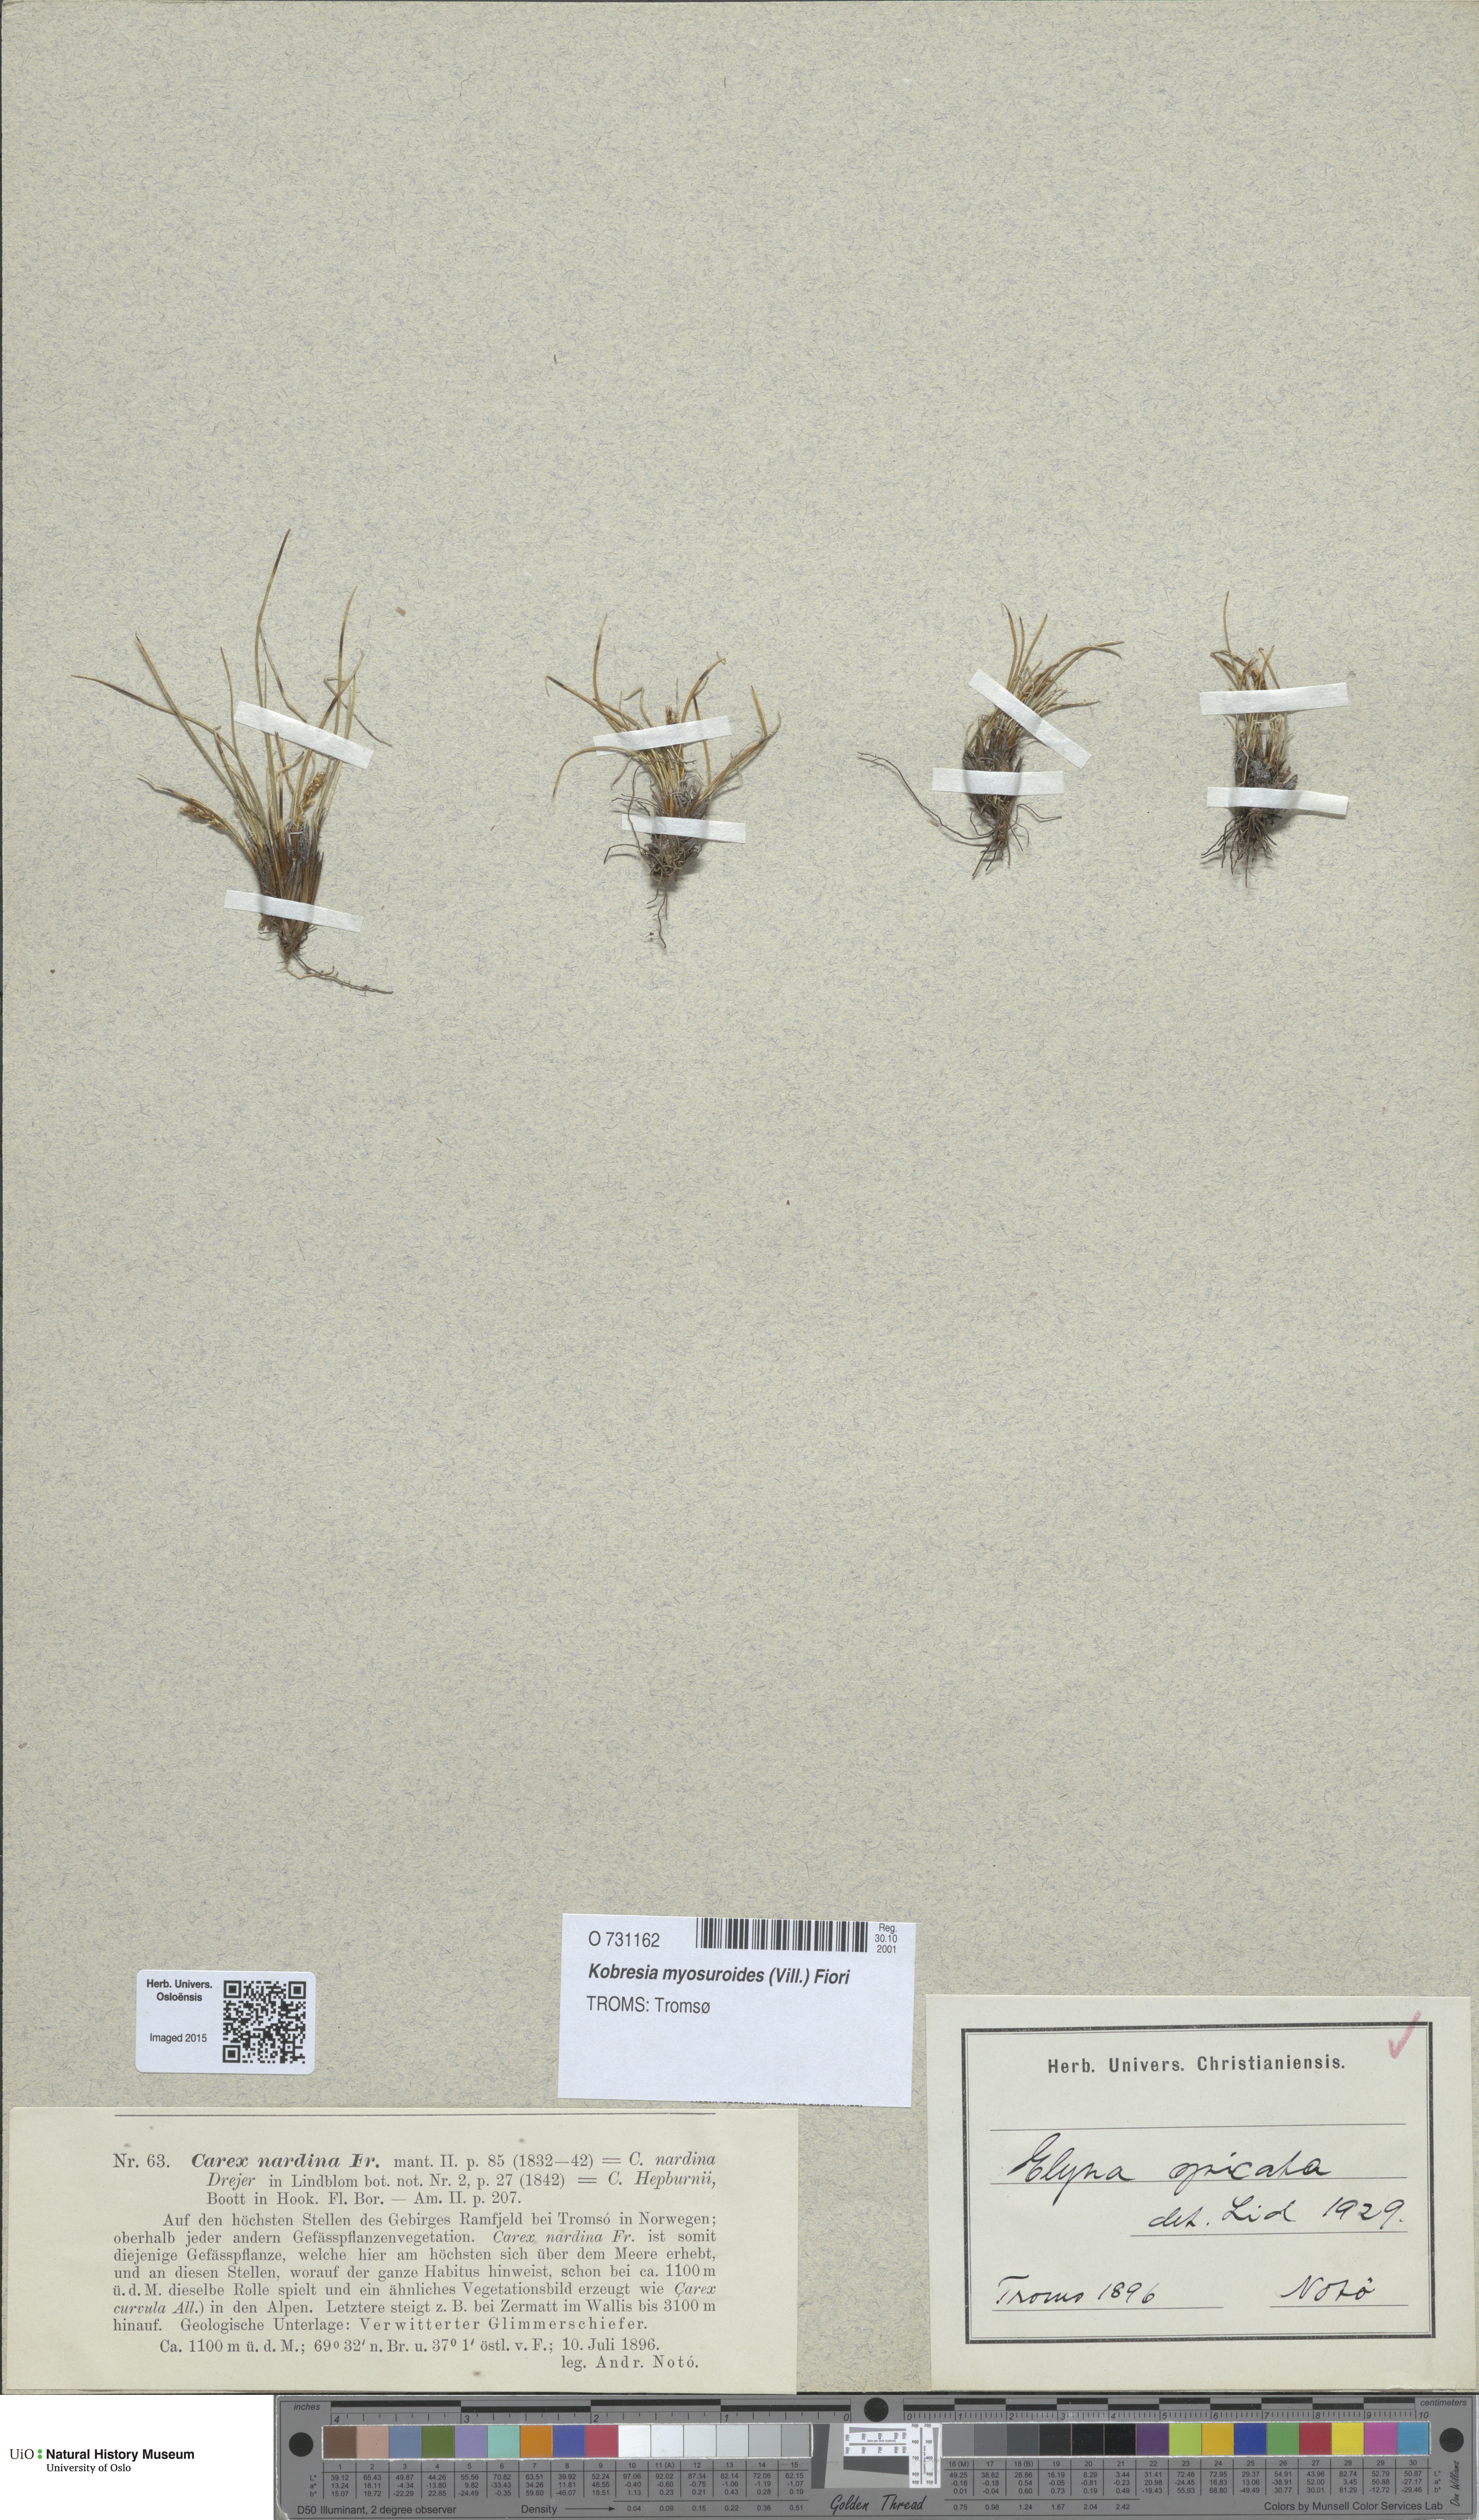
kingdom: Plantae
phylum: Tracheophyta
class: Liliopsida
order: Poales
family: Cyperaceae
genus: Carex
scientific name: Carex myosuroides
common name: Bellard's bog sedge
